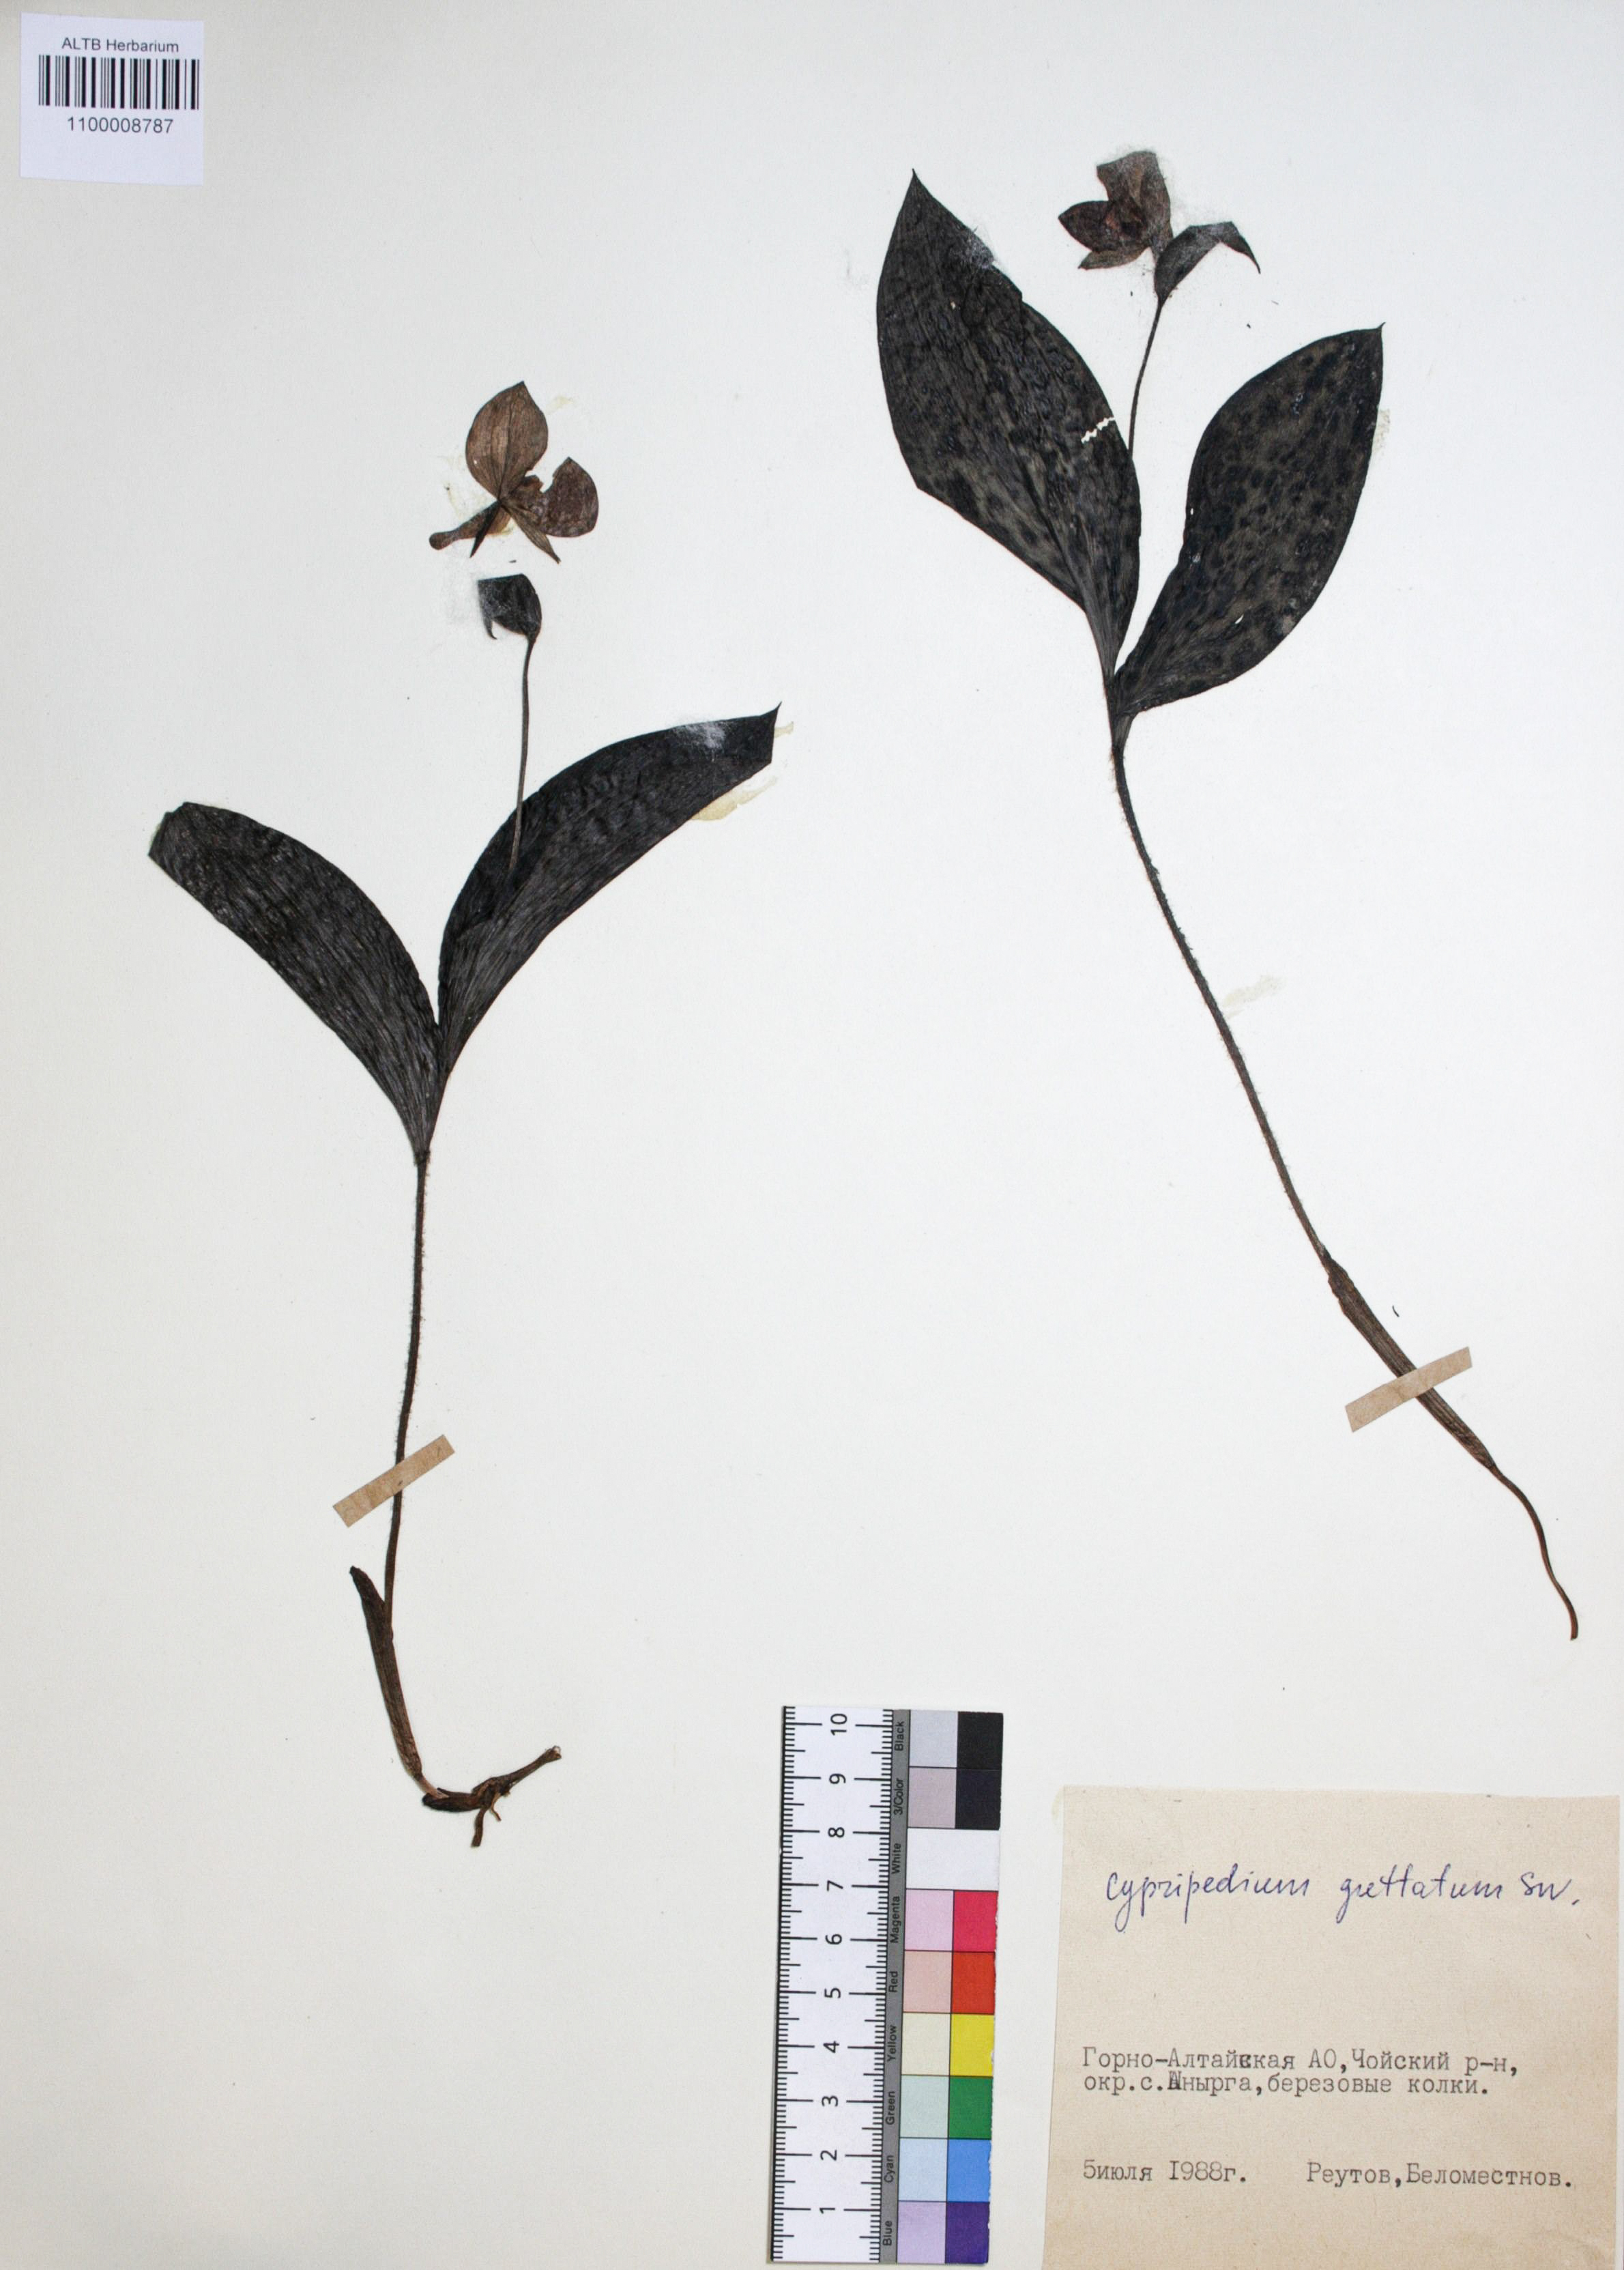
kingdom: Plantae
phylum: Tracheophyta
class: Liliopsida
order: Asparagales
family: Orchidaceae
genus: Cypripedium
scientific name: Cypripedium guttatum
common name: Pink lady slipper
